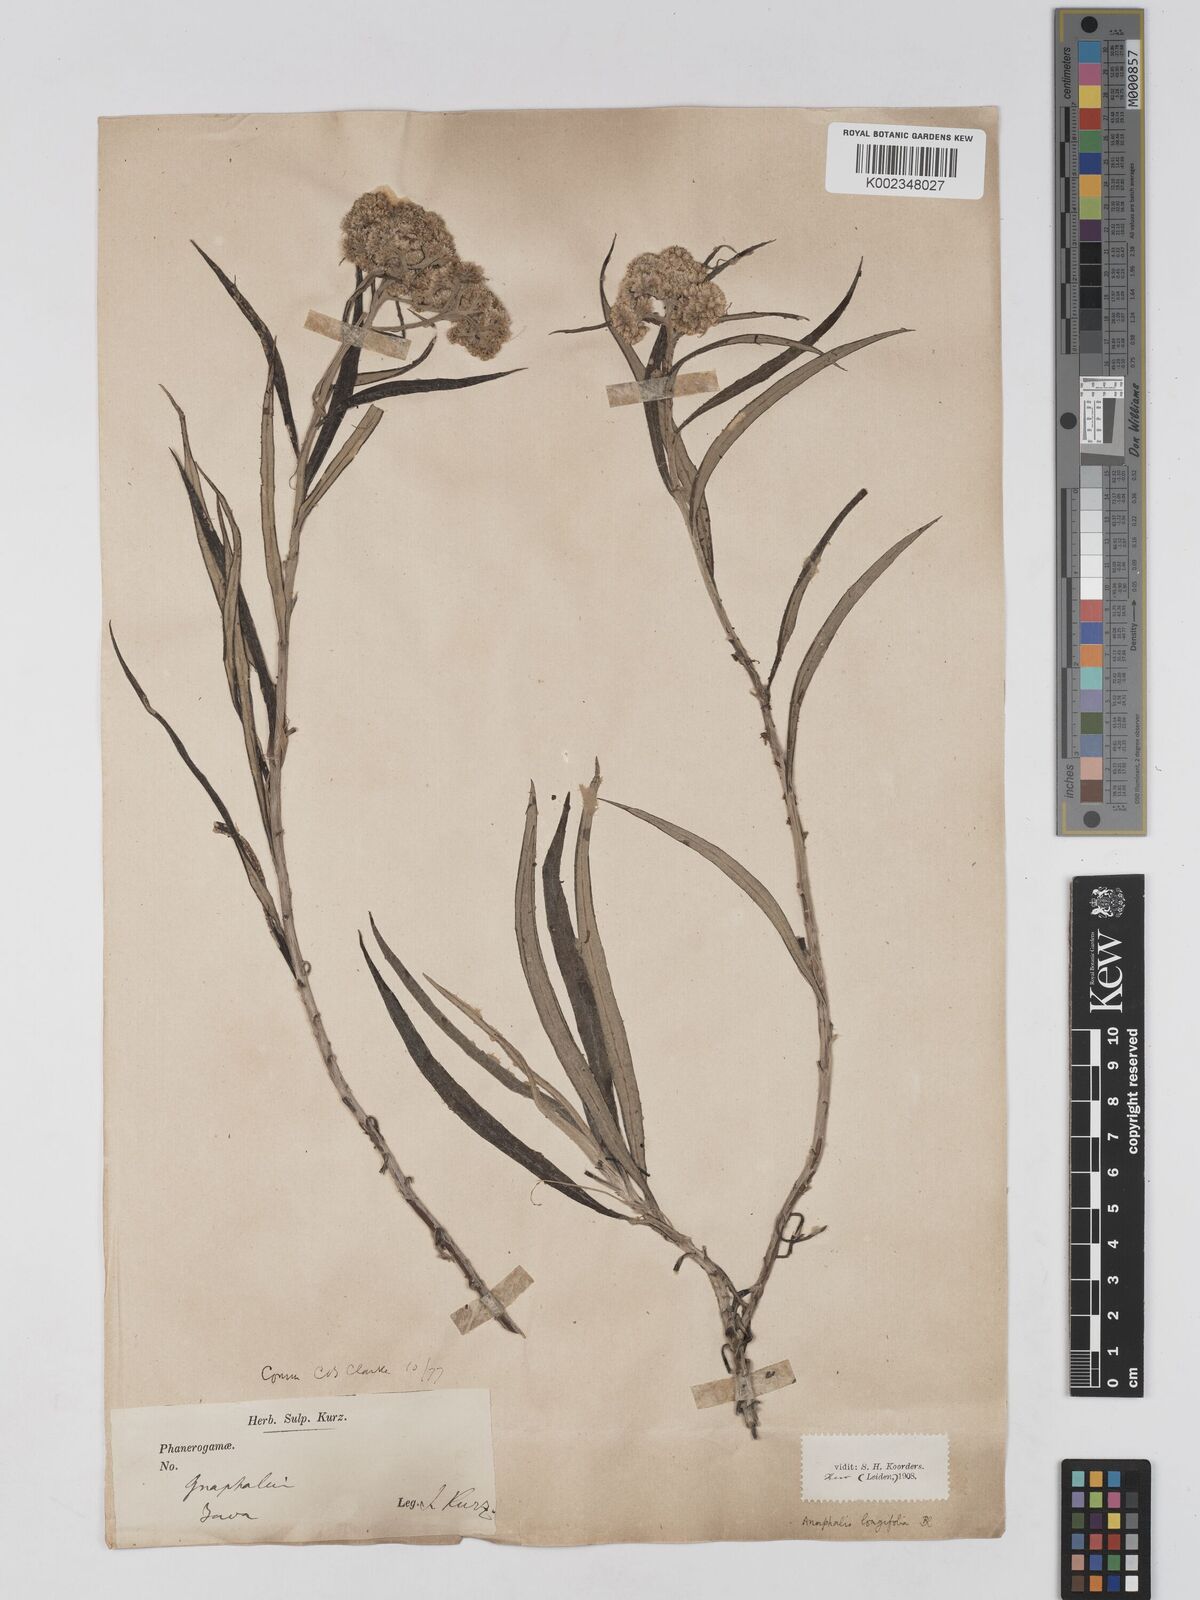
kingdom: Plantae
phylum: Tracheophyta
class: Magnoliopsida
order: Asterales
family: Asteraceae
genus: Anaphalis
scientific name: Anaphalis longifolia
